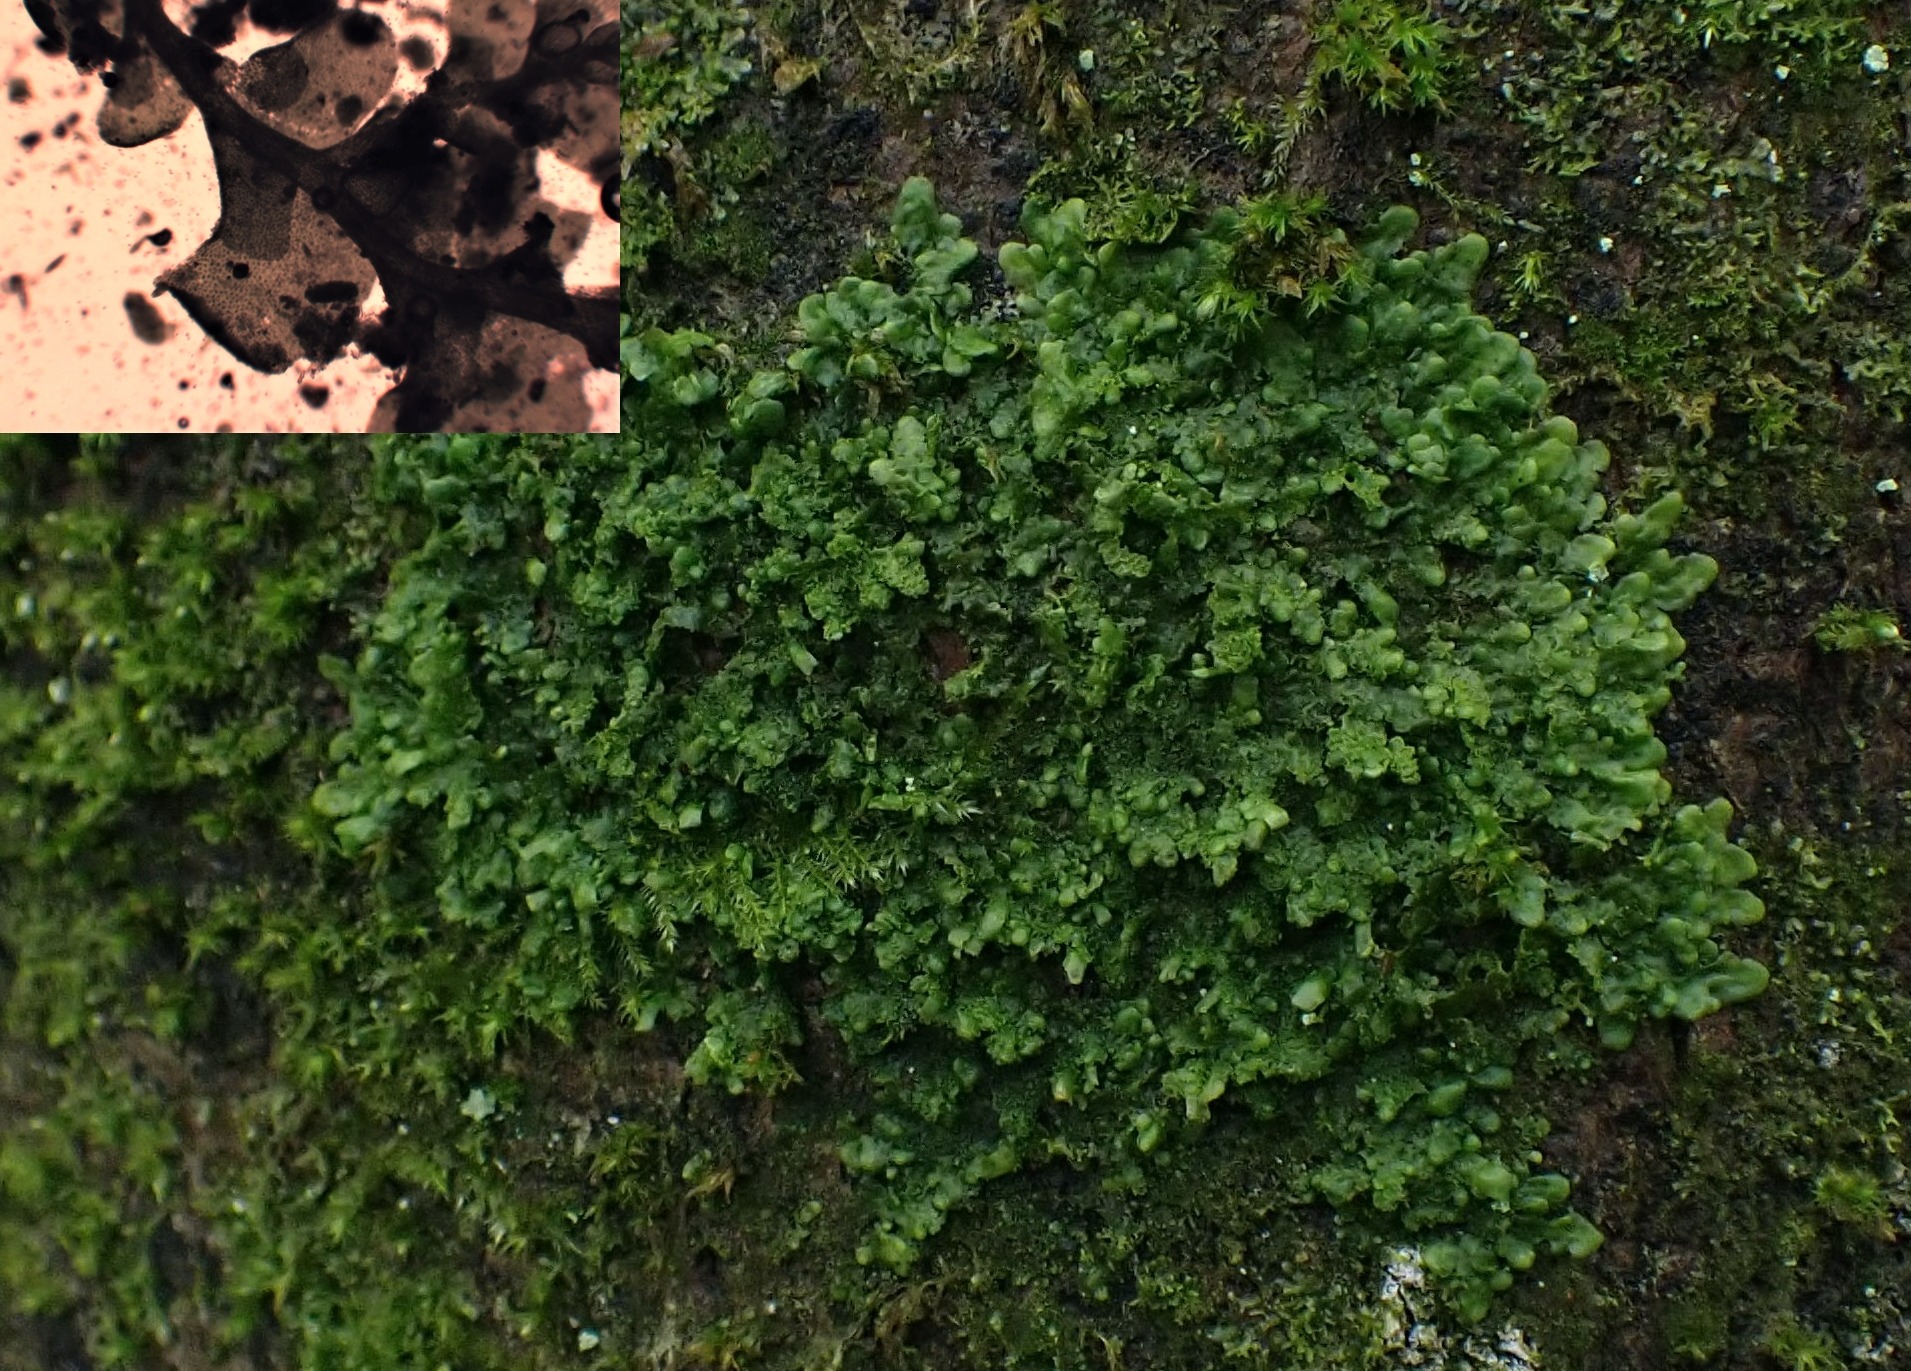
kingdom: Plantae
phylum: Marchantiophyta
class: Jungermanniopsida
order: Porellales
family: Radulaceae
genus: Radula
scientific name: Radula complanata
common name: Almindelig spartelmos
